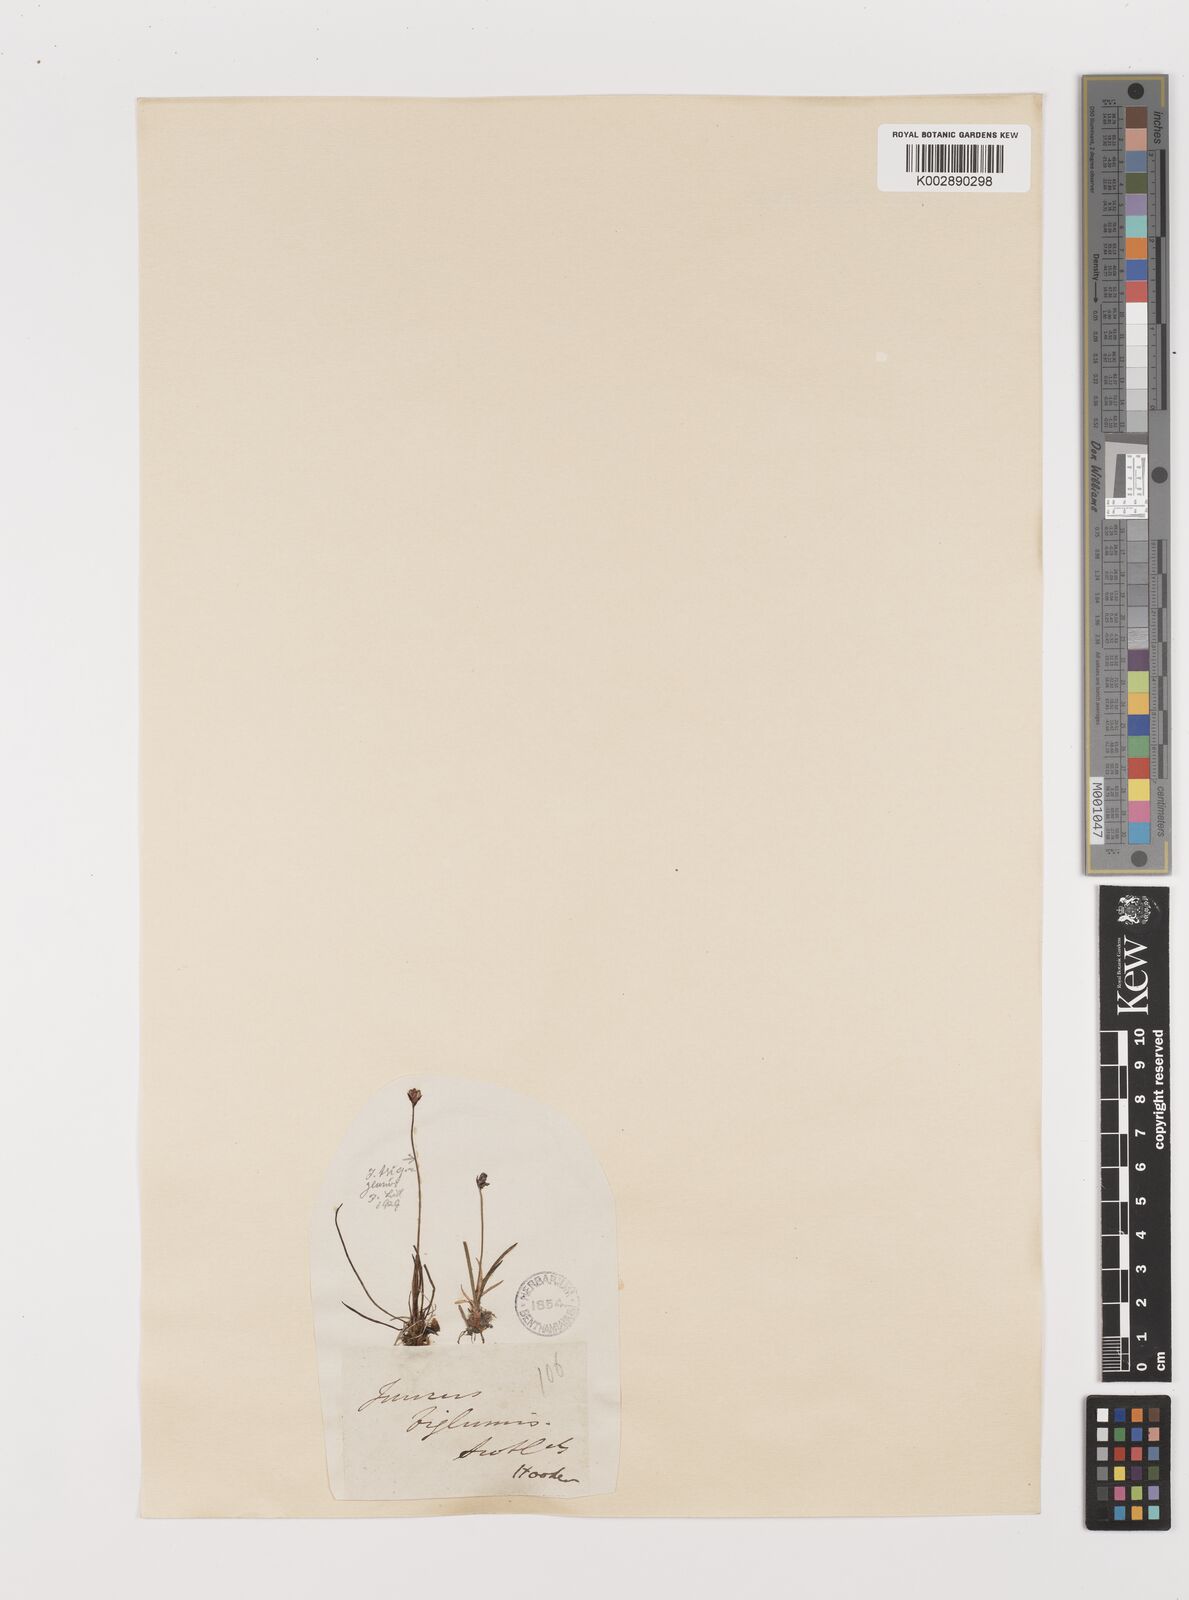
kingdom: Plantae
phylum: Tracheophyta
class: Liliopsida
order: Poales
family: Juncaceae
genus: Juncus
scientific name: Juncus biglumis
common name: Two-flowered rush
